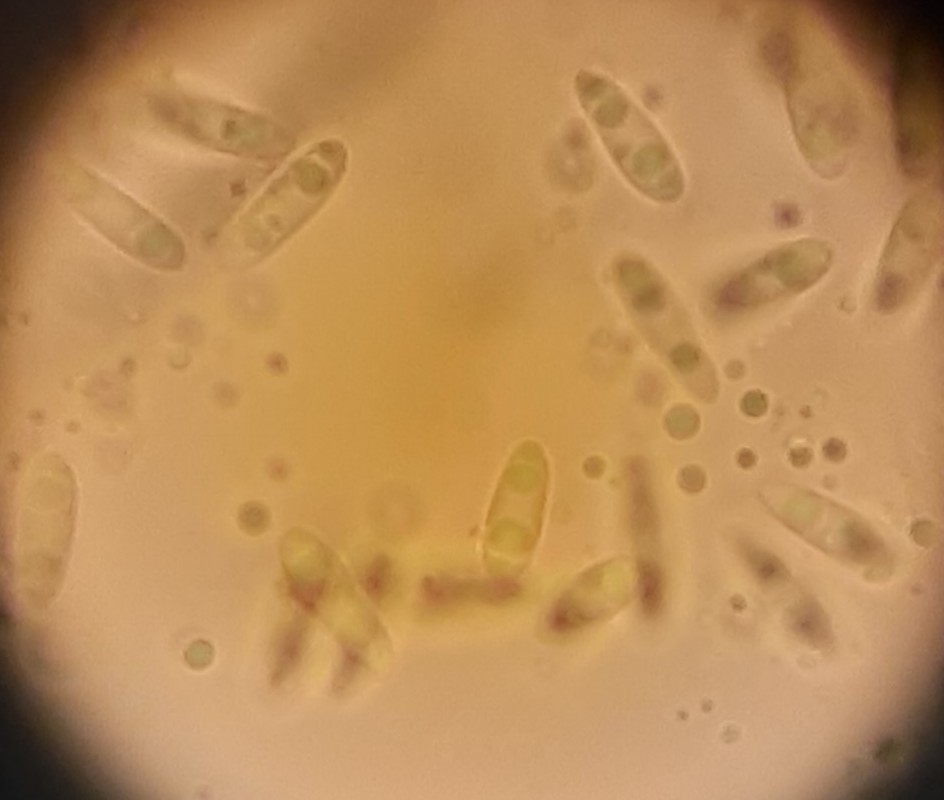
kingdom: Fungi
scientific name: Fungi
